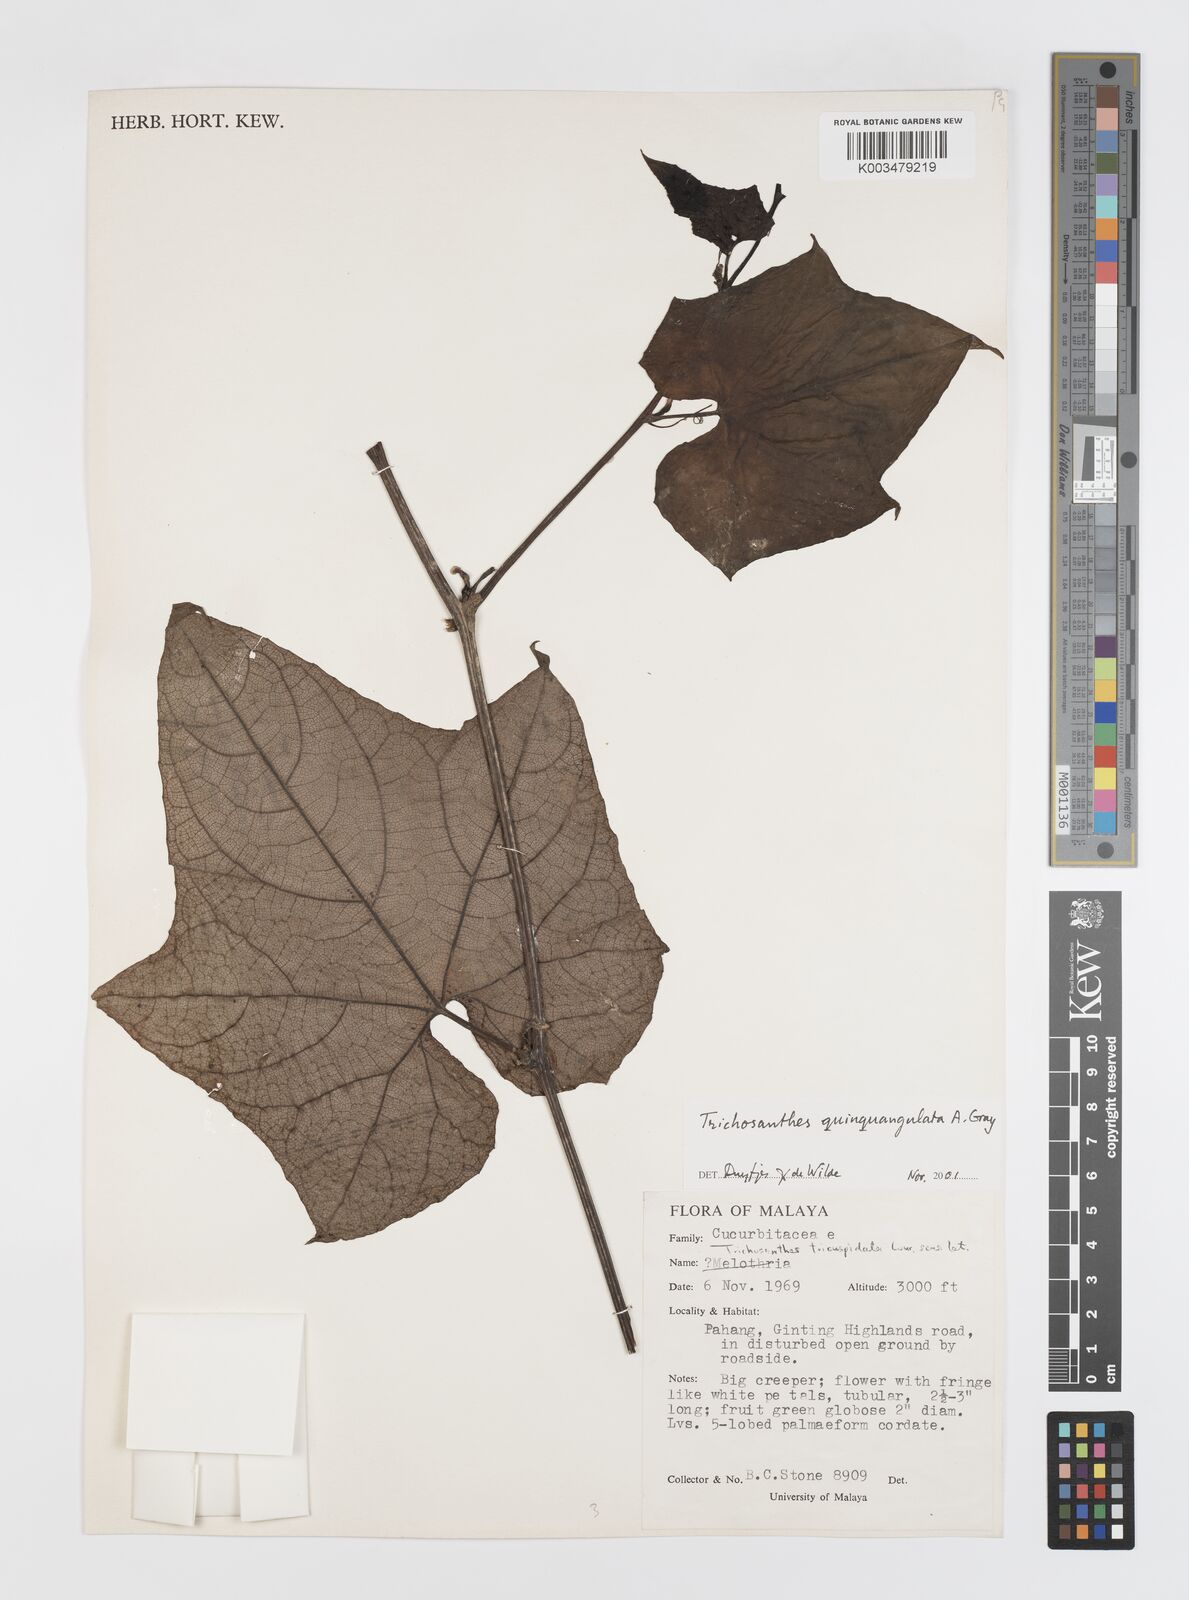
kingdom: Plantae
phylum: Tracheophyta
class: Magnoliopsida
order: Cucurbitales
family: Cucurbitaceae
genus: Trichosanthes
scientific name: Trichosanthes quinquangulata
